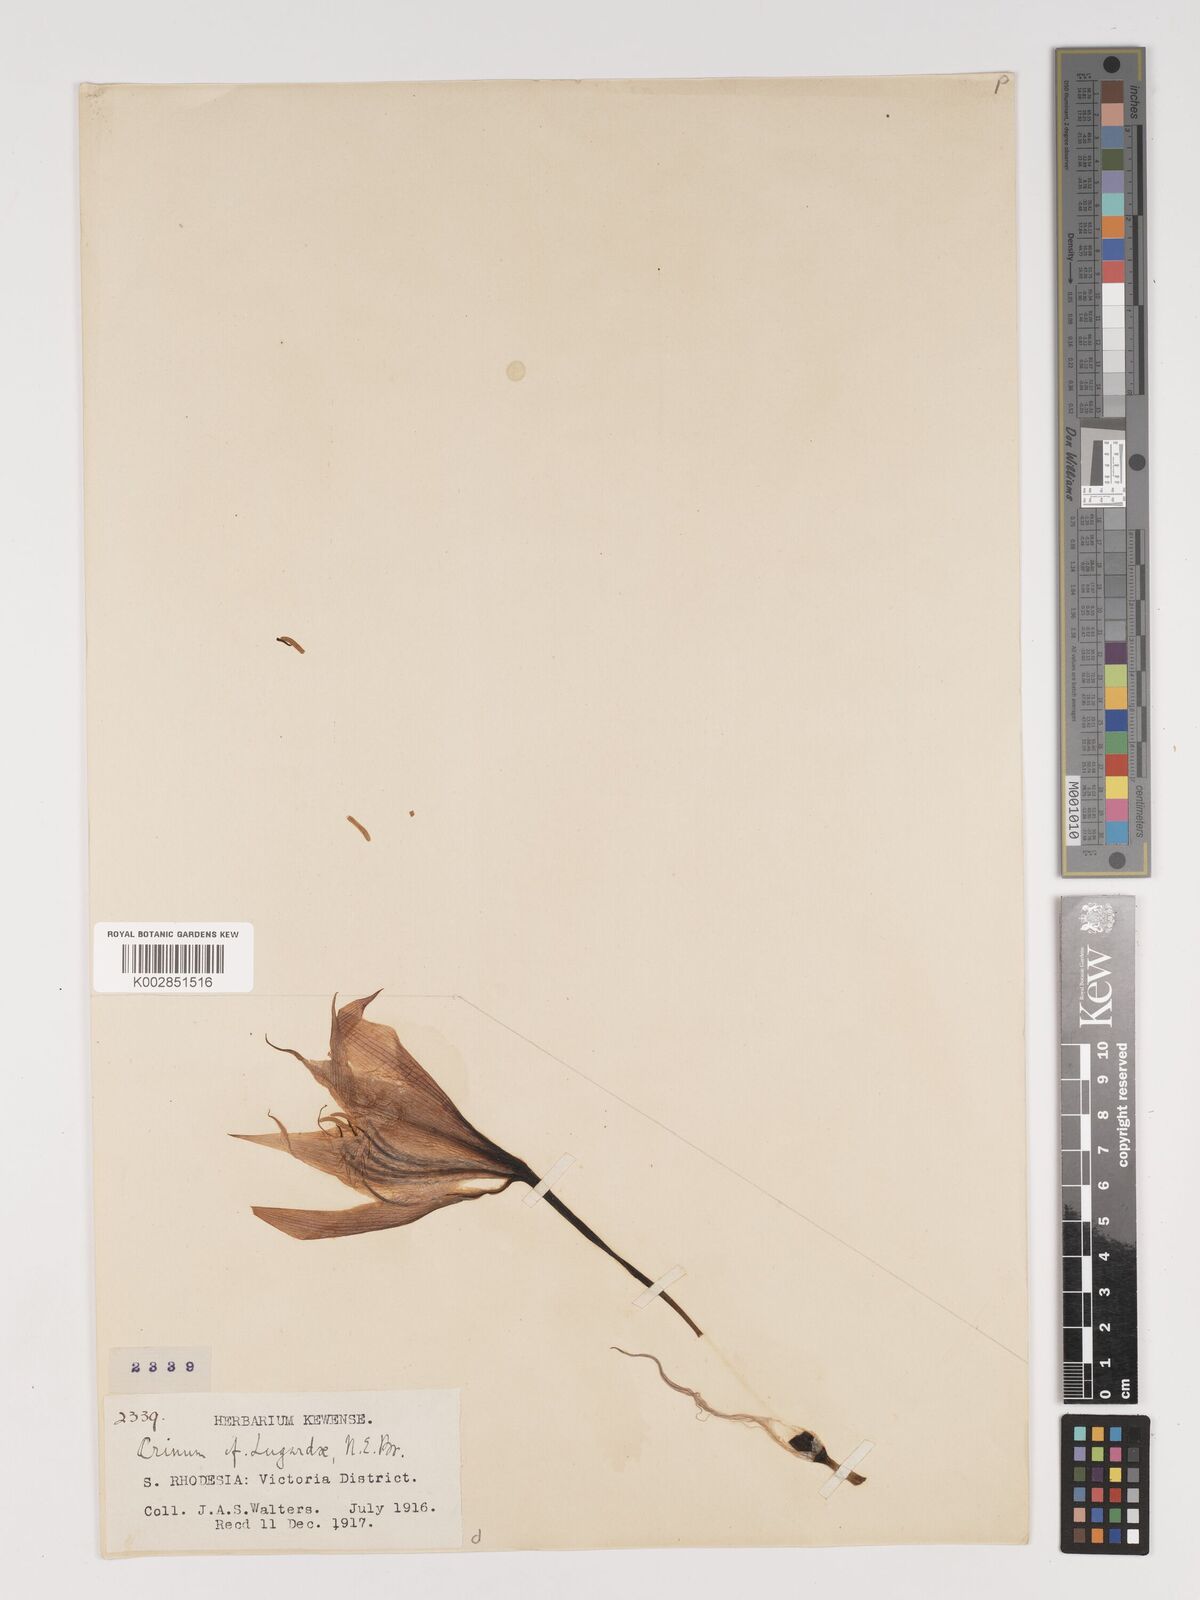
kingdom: Plantae
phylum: Tracheophyta
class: Liliopsida
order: Asparagales
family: Amaryllidaceae
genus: Crinum
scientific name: Crinum crassicaule
